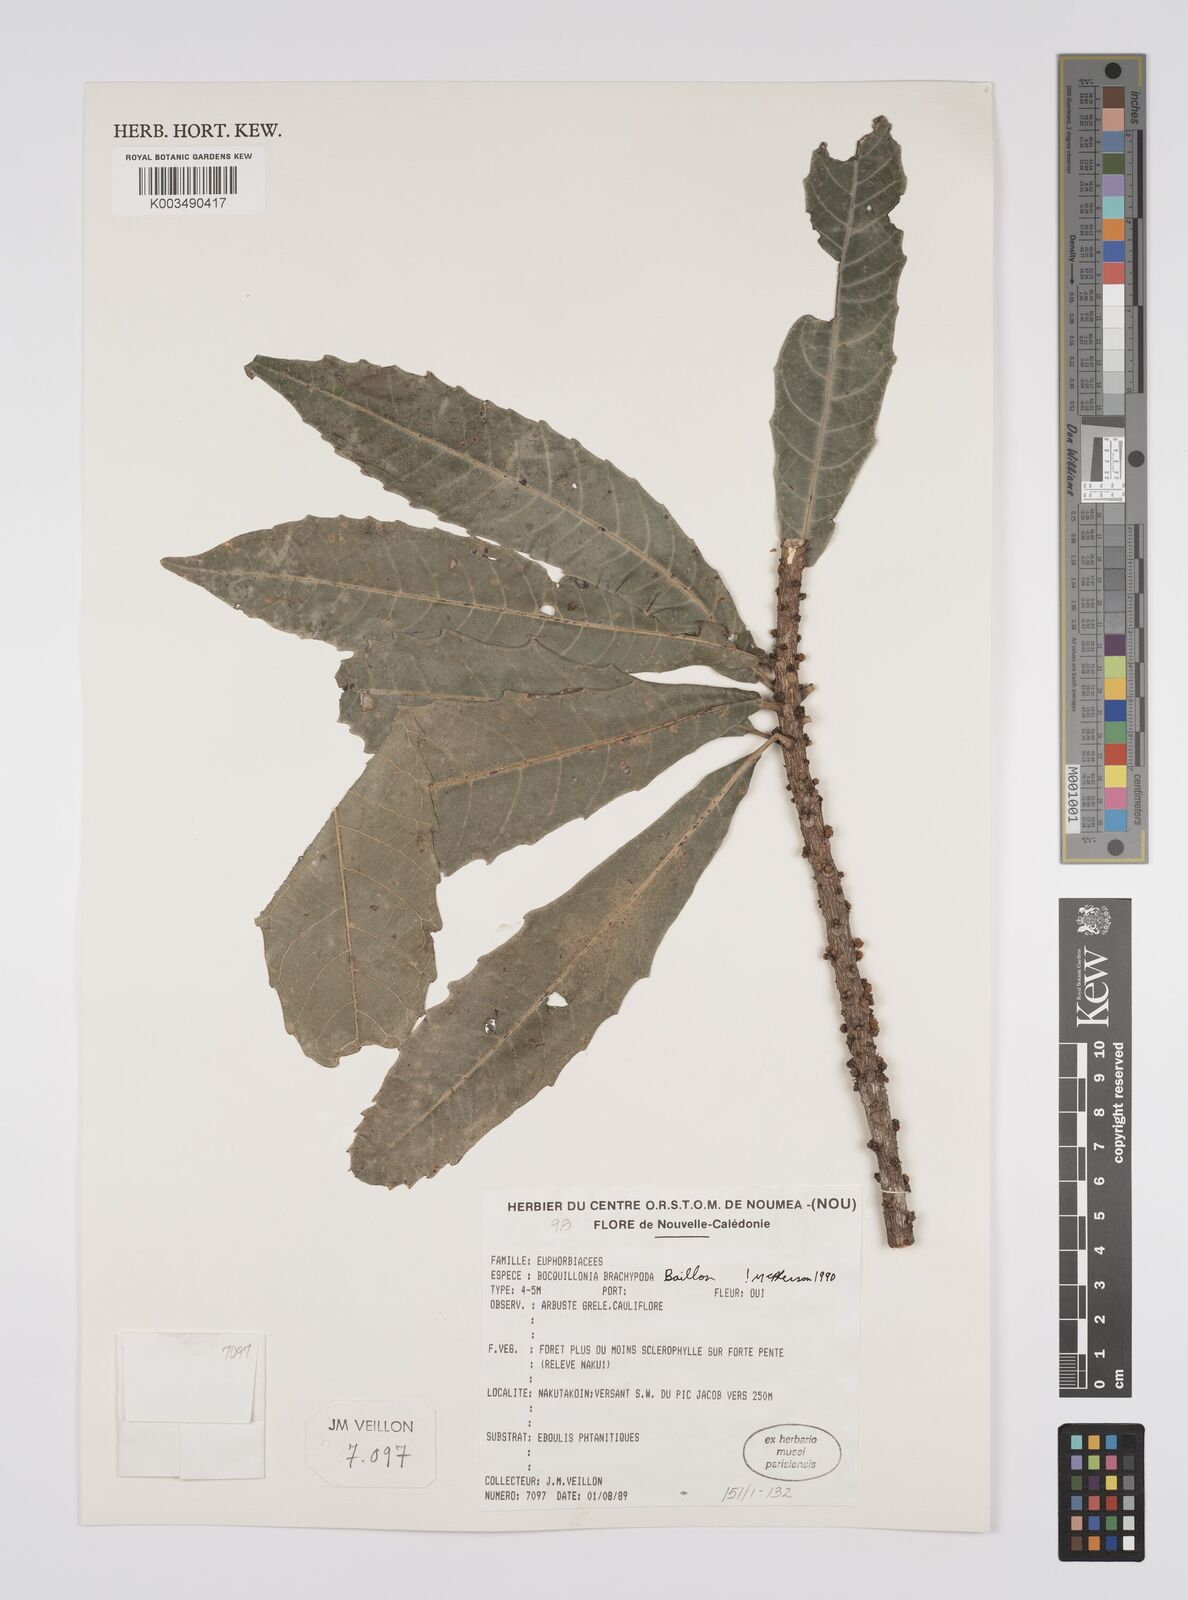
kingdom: Plantae
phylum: Tracheophyta
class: Magnoliopsida
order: Malpighiales
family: Euphorbiaceae
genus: Bocquillonia
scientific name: Bocquillonia brachypoda
